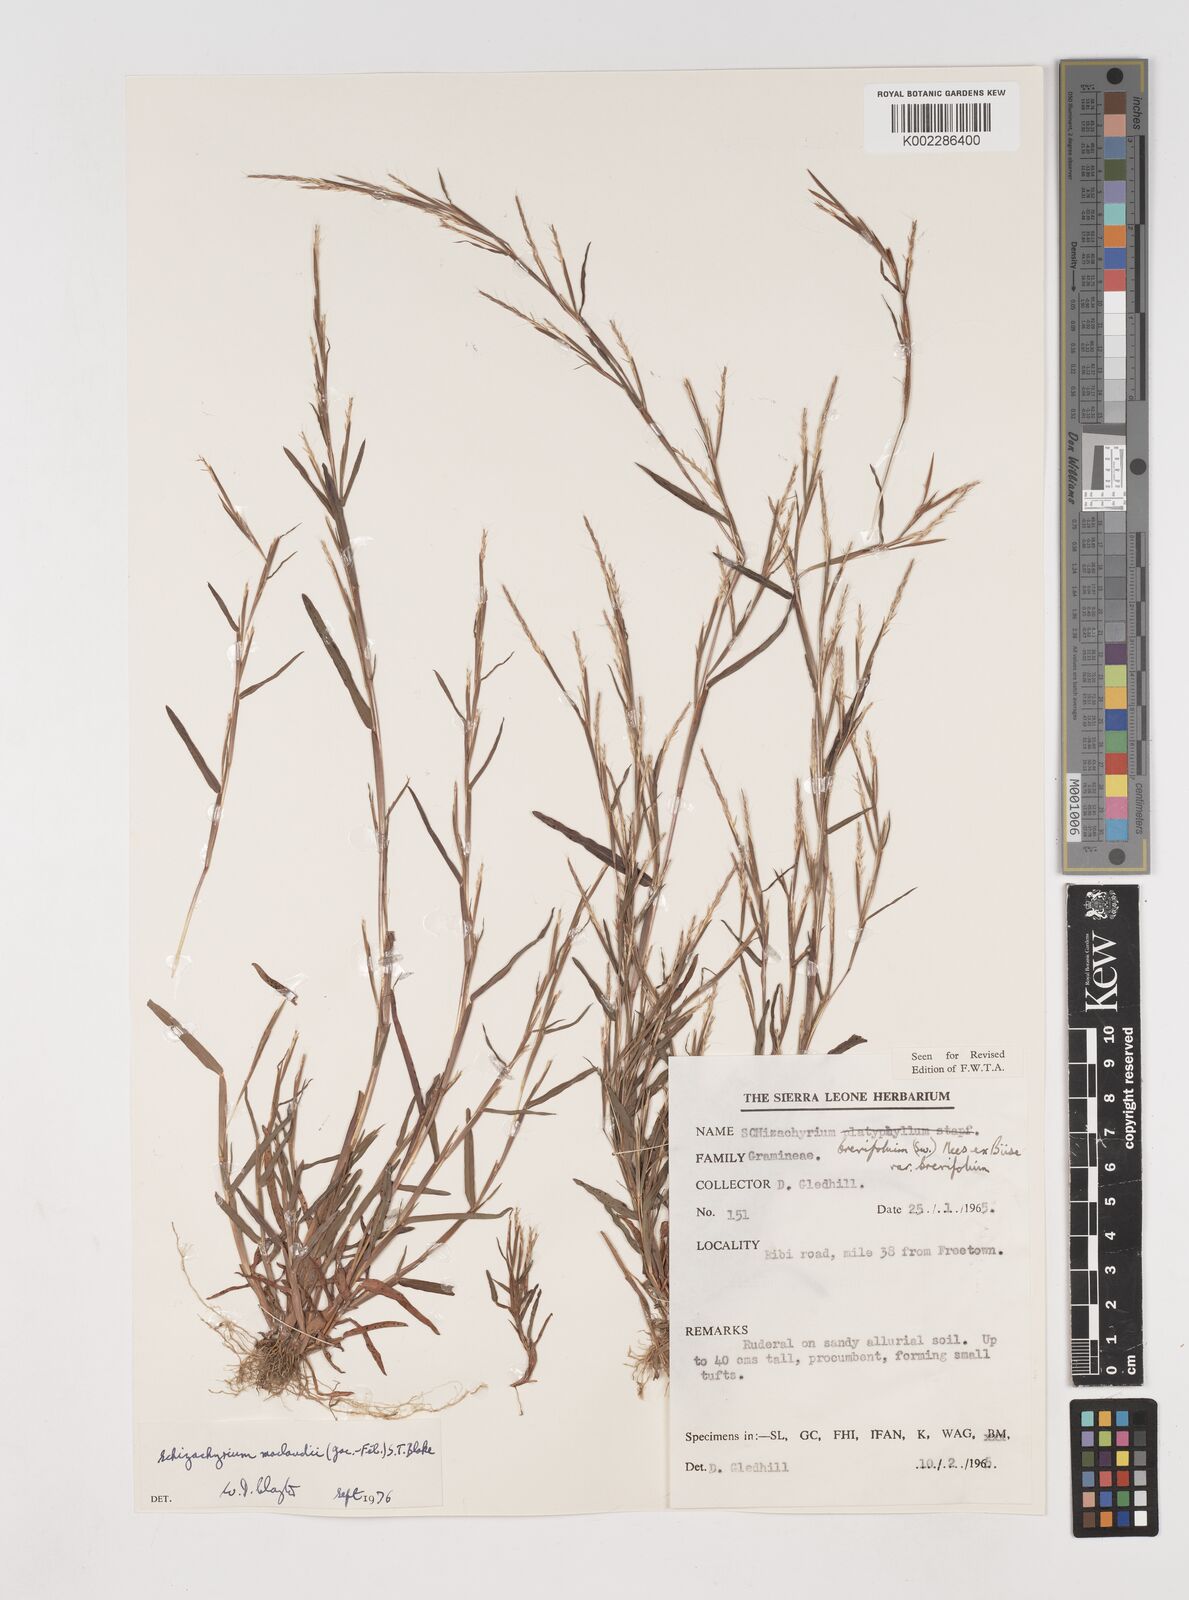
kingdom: Plantae
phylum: Tracheophyta
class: Liliopsida
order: Poales
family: Poaceae
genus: Schizachyrium
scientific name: Schizachyrium maclaudii
